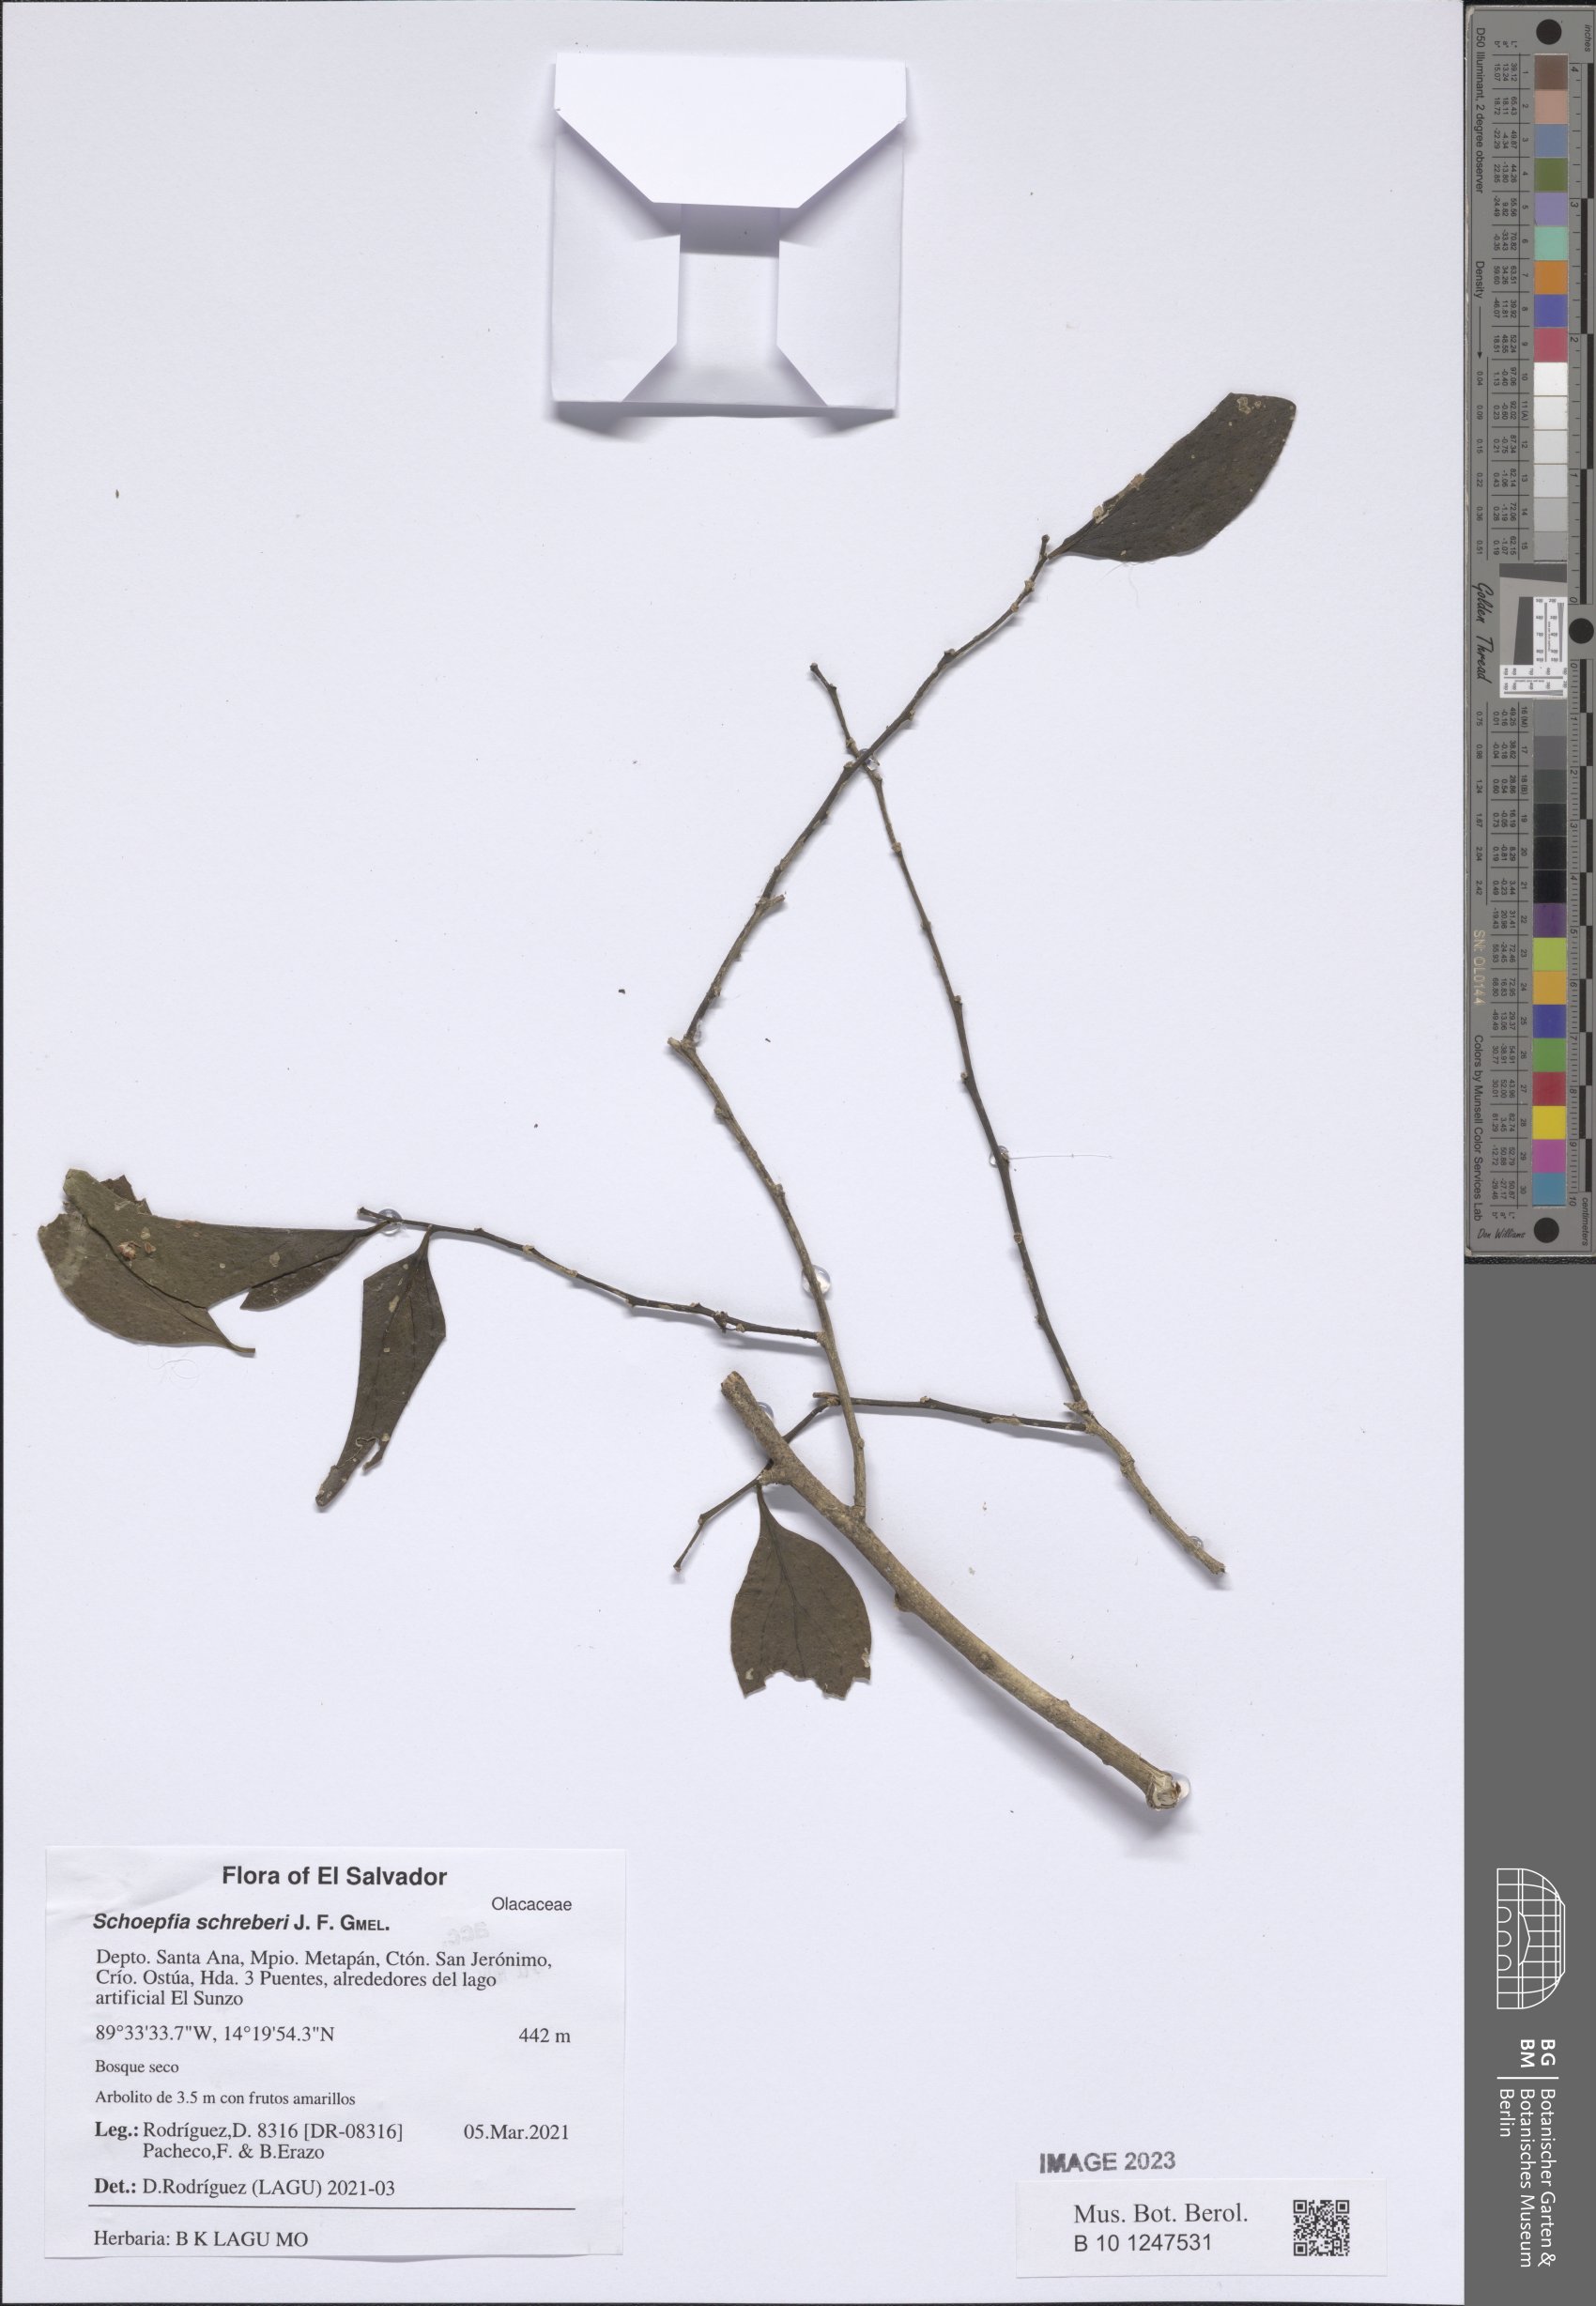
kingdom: Plantae
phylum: Tracheophyta
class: Magnoliopsida
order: Santalales
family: Schoepfiaceae
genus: Schoepfia
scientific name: Schoepfia schreberi
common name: Gulf graytwig
